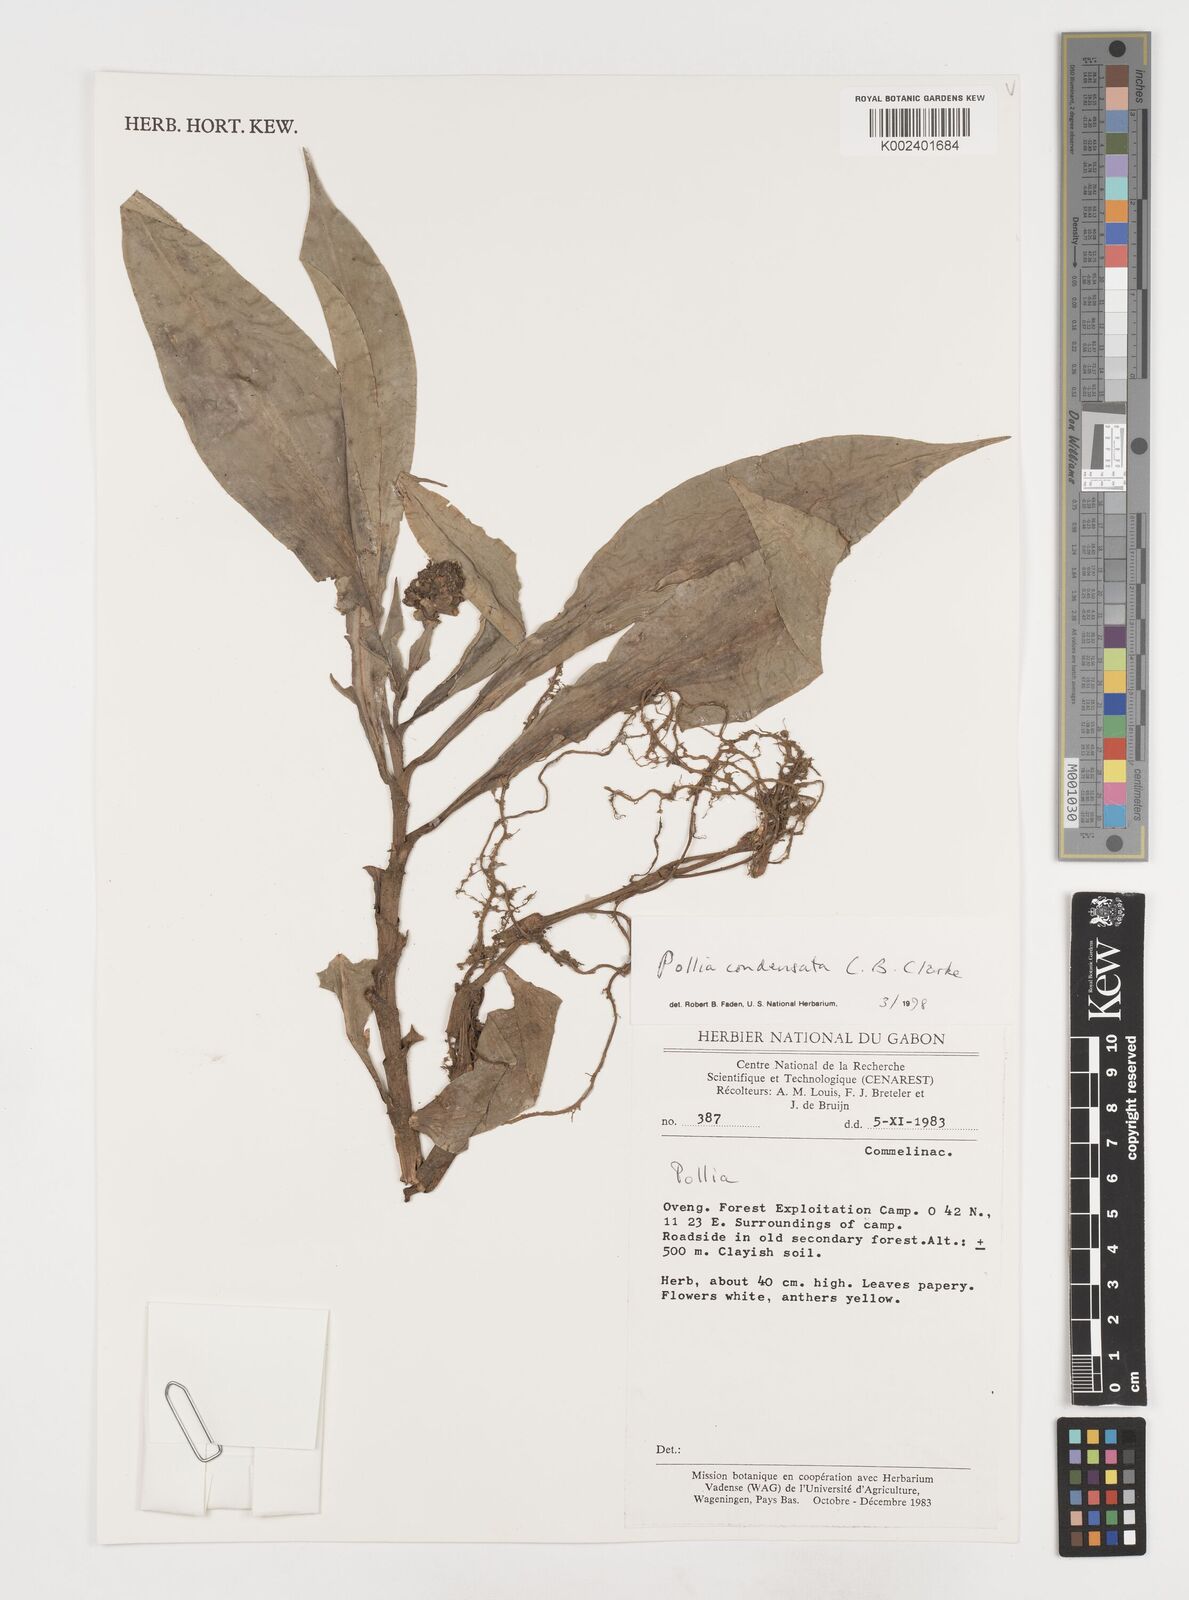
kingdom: Plantae
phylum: Tracheophyta
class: Liliopsida
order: Commelinales
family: Commelinaceae
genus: Pollia
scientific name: Pollia condensata
